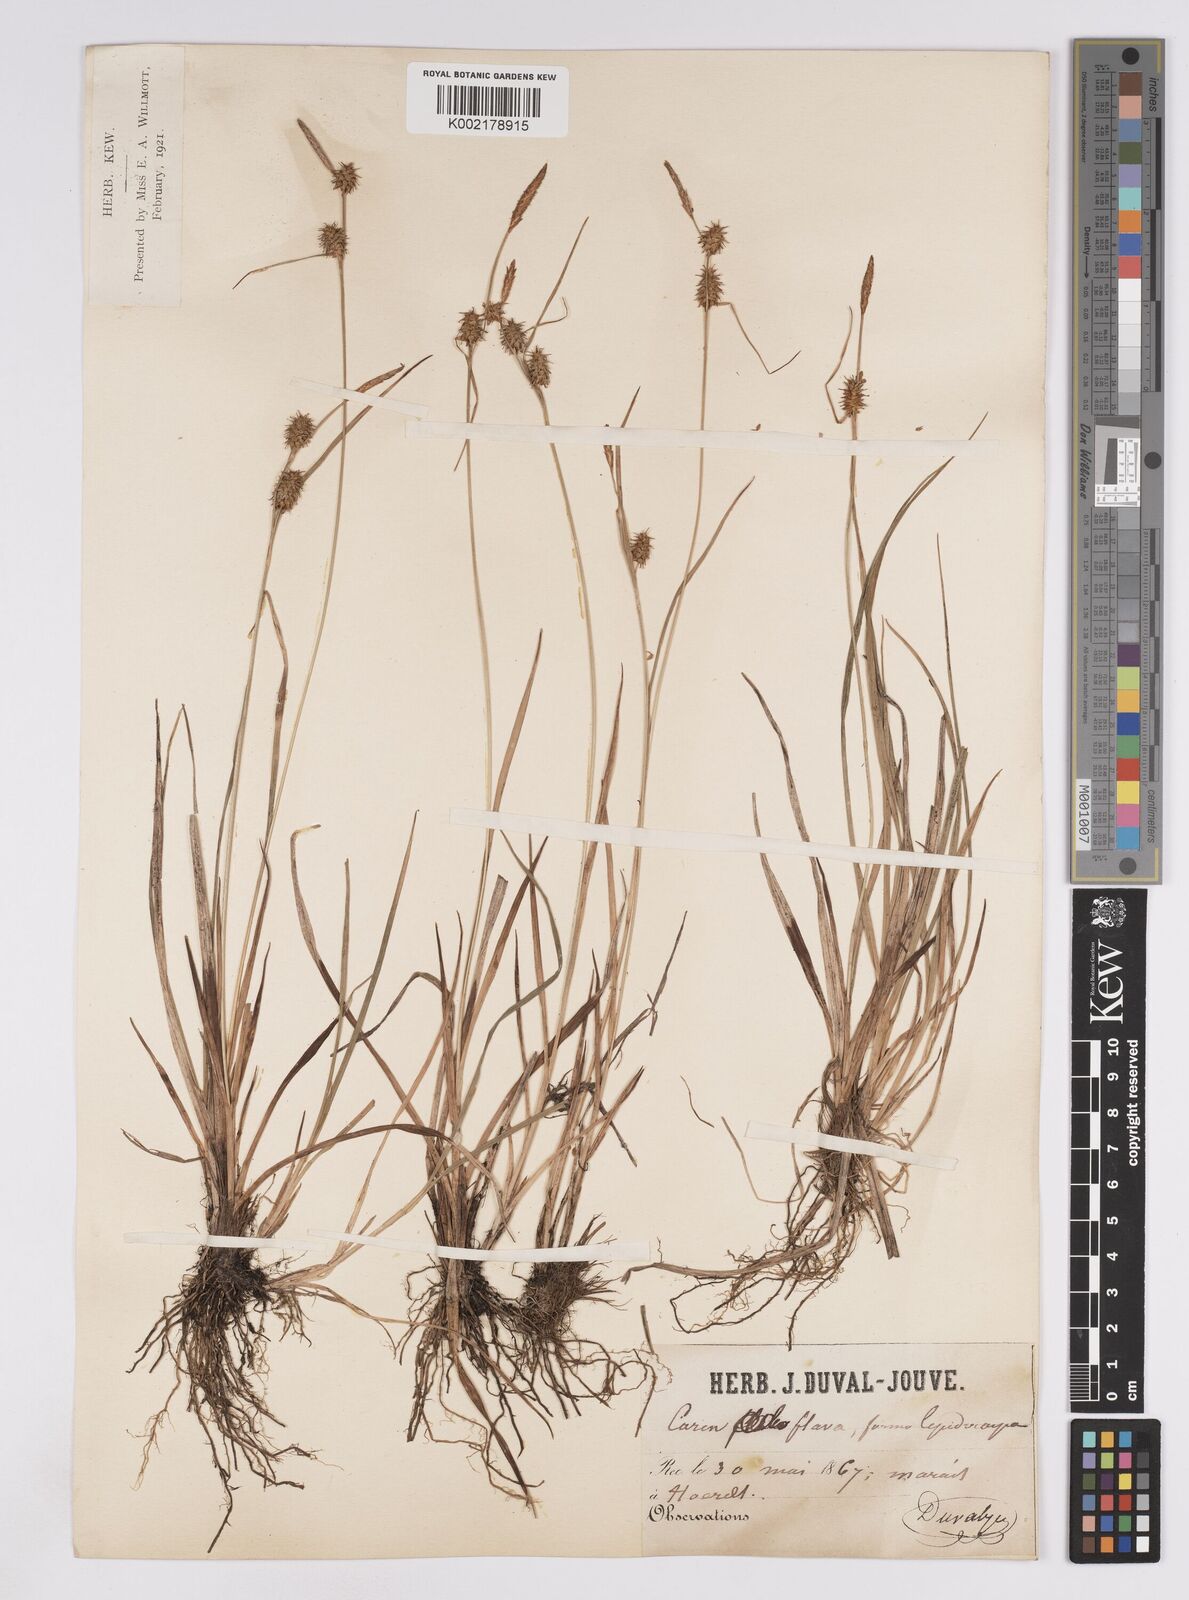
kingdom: Plantae
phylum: Tracheophyta
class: Liliopsida
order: Poales
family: Cyperaceae
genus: Carex
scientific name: Carex lepidocarpa
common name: Long-stalked yellow-sedge
